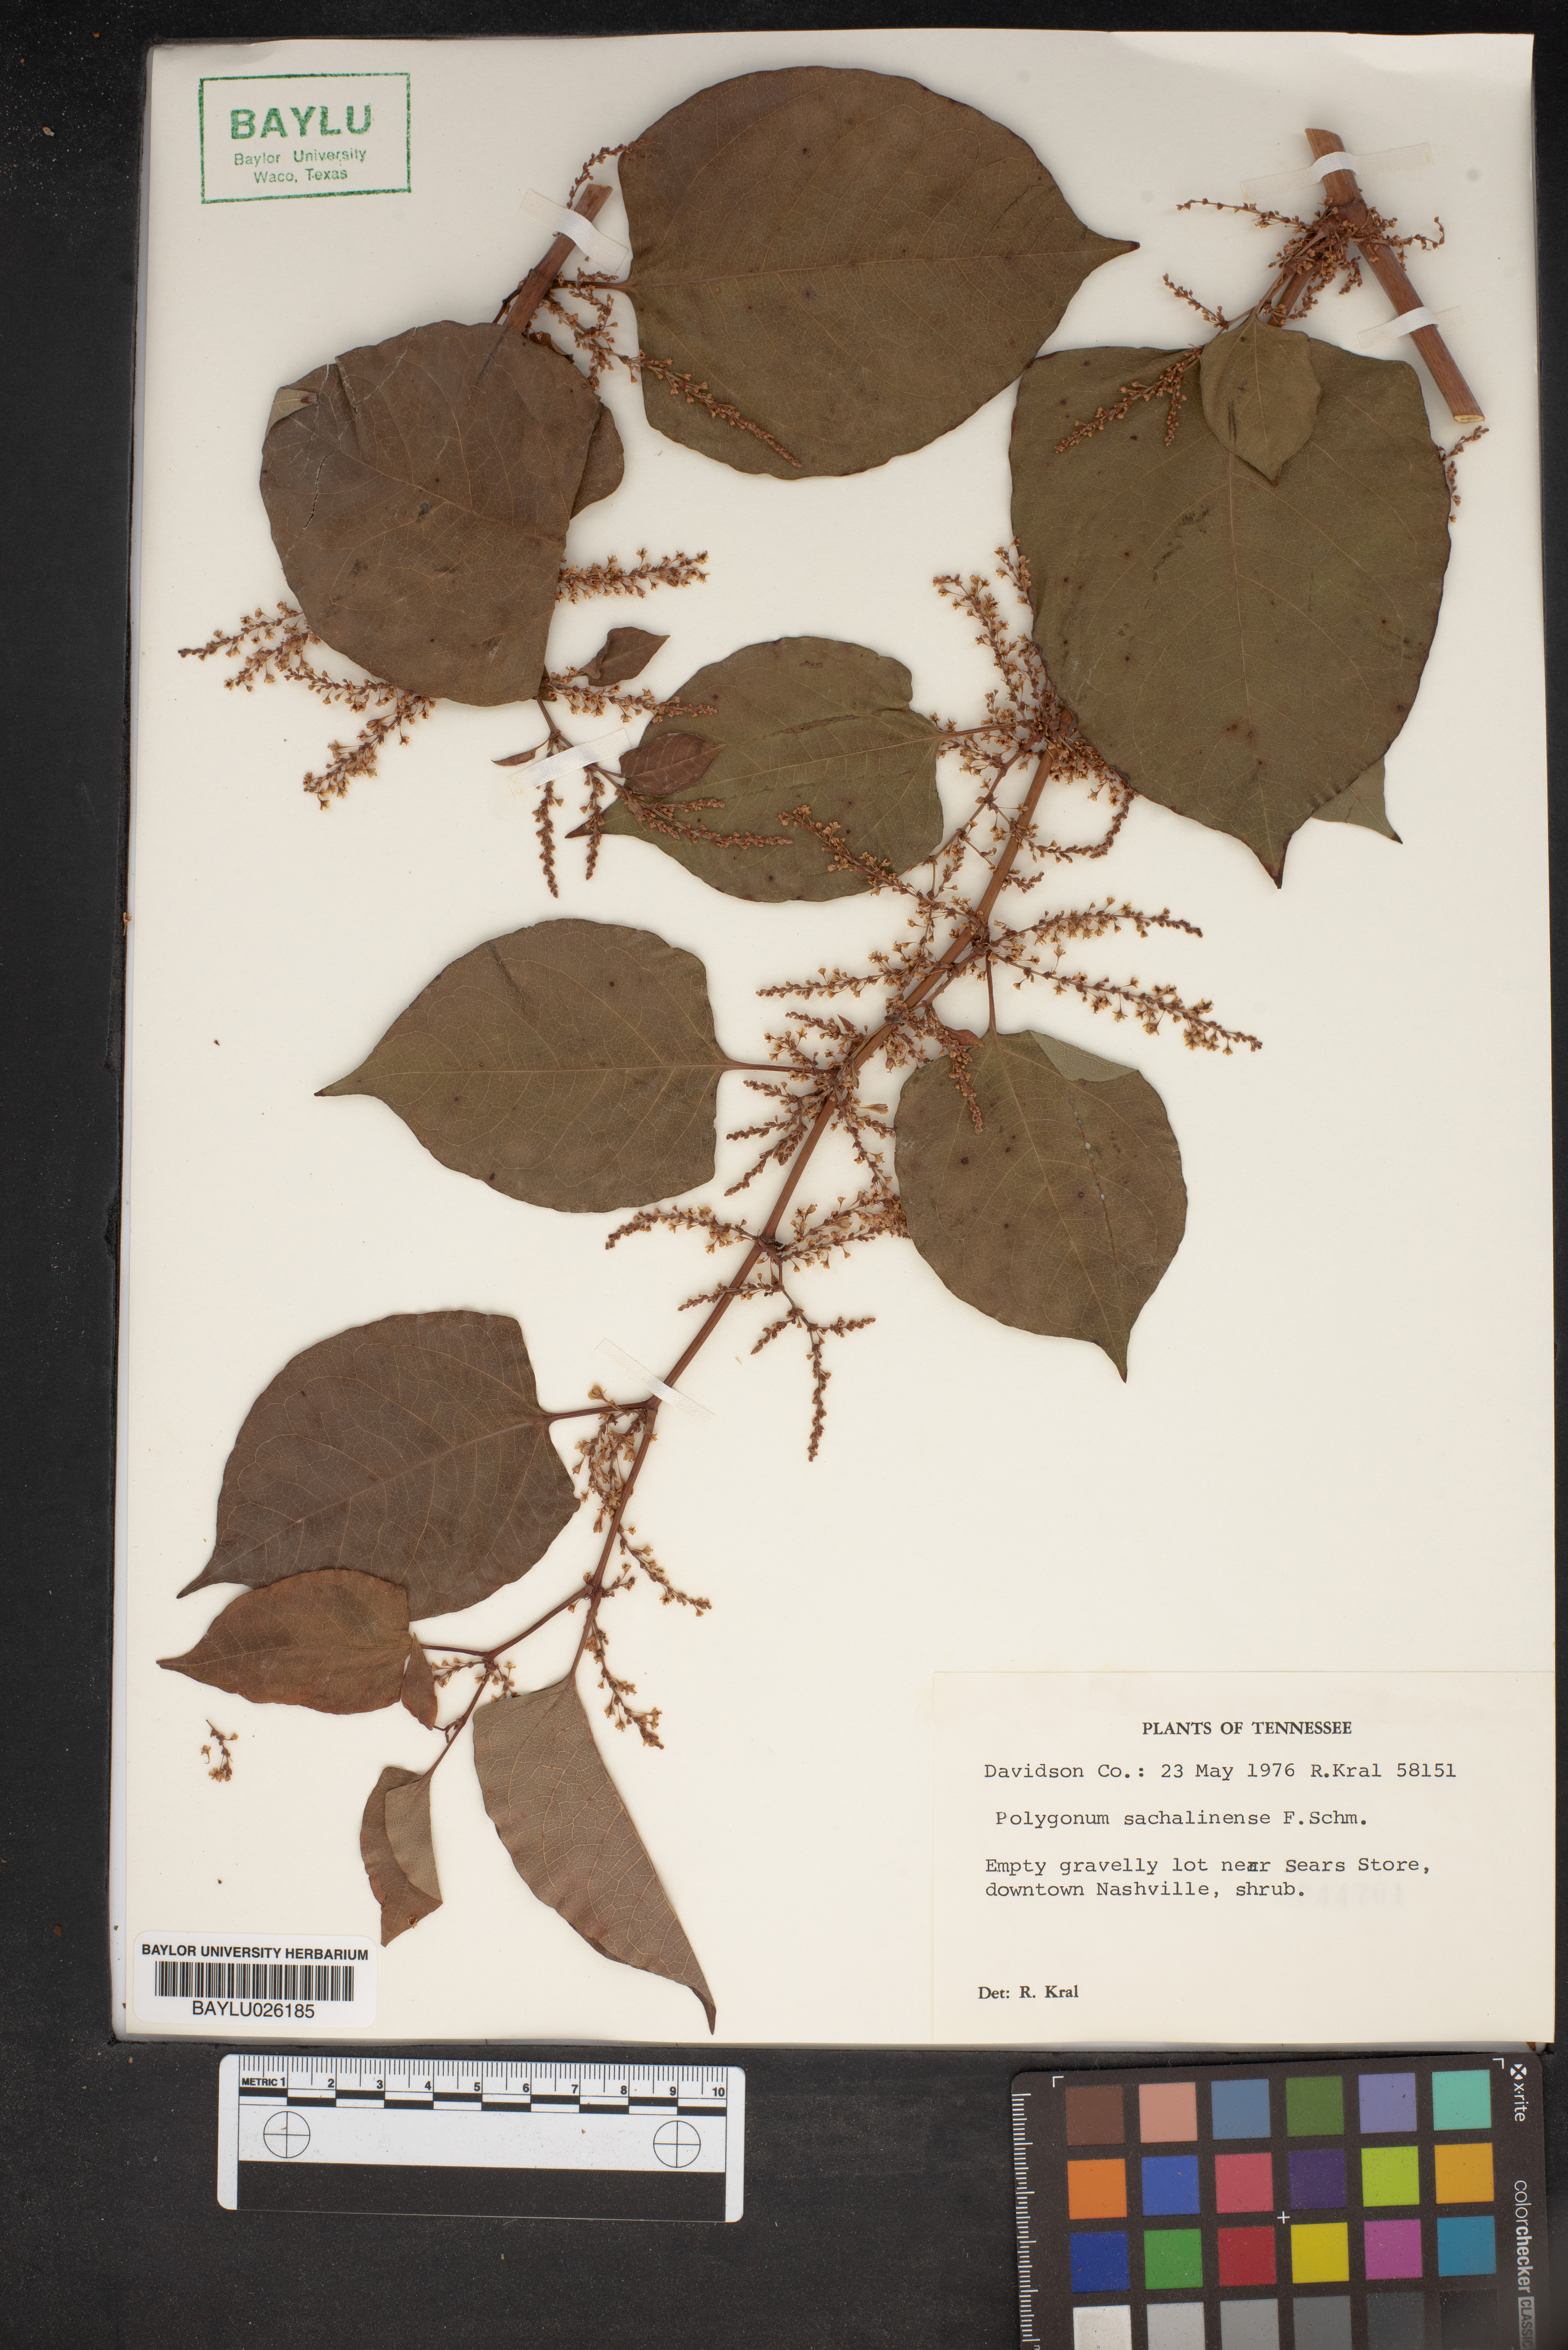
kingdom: Plantae
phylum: Tracheophyta
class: Magnoliopsida
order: Caryophyllales
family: Polygonaceae
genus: Reynoutria
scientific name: Reynoutria sachalinensis
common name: Giant knotweed
